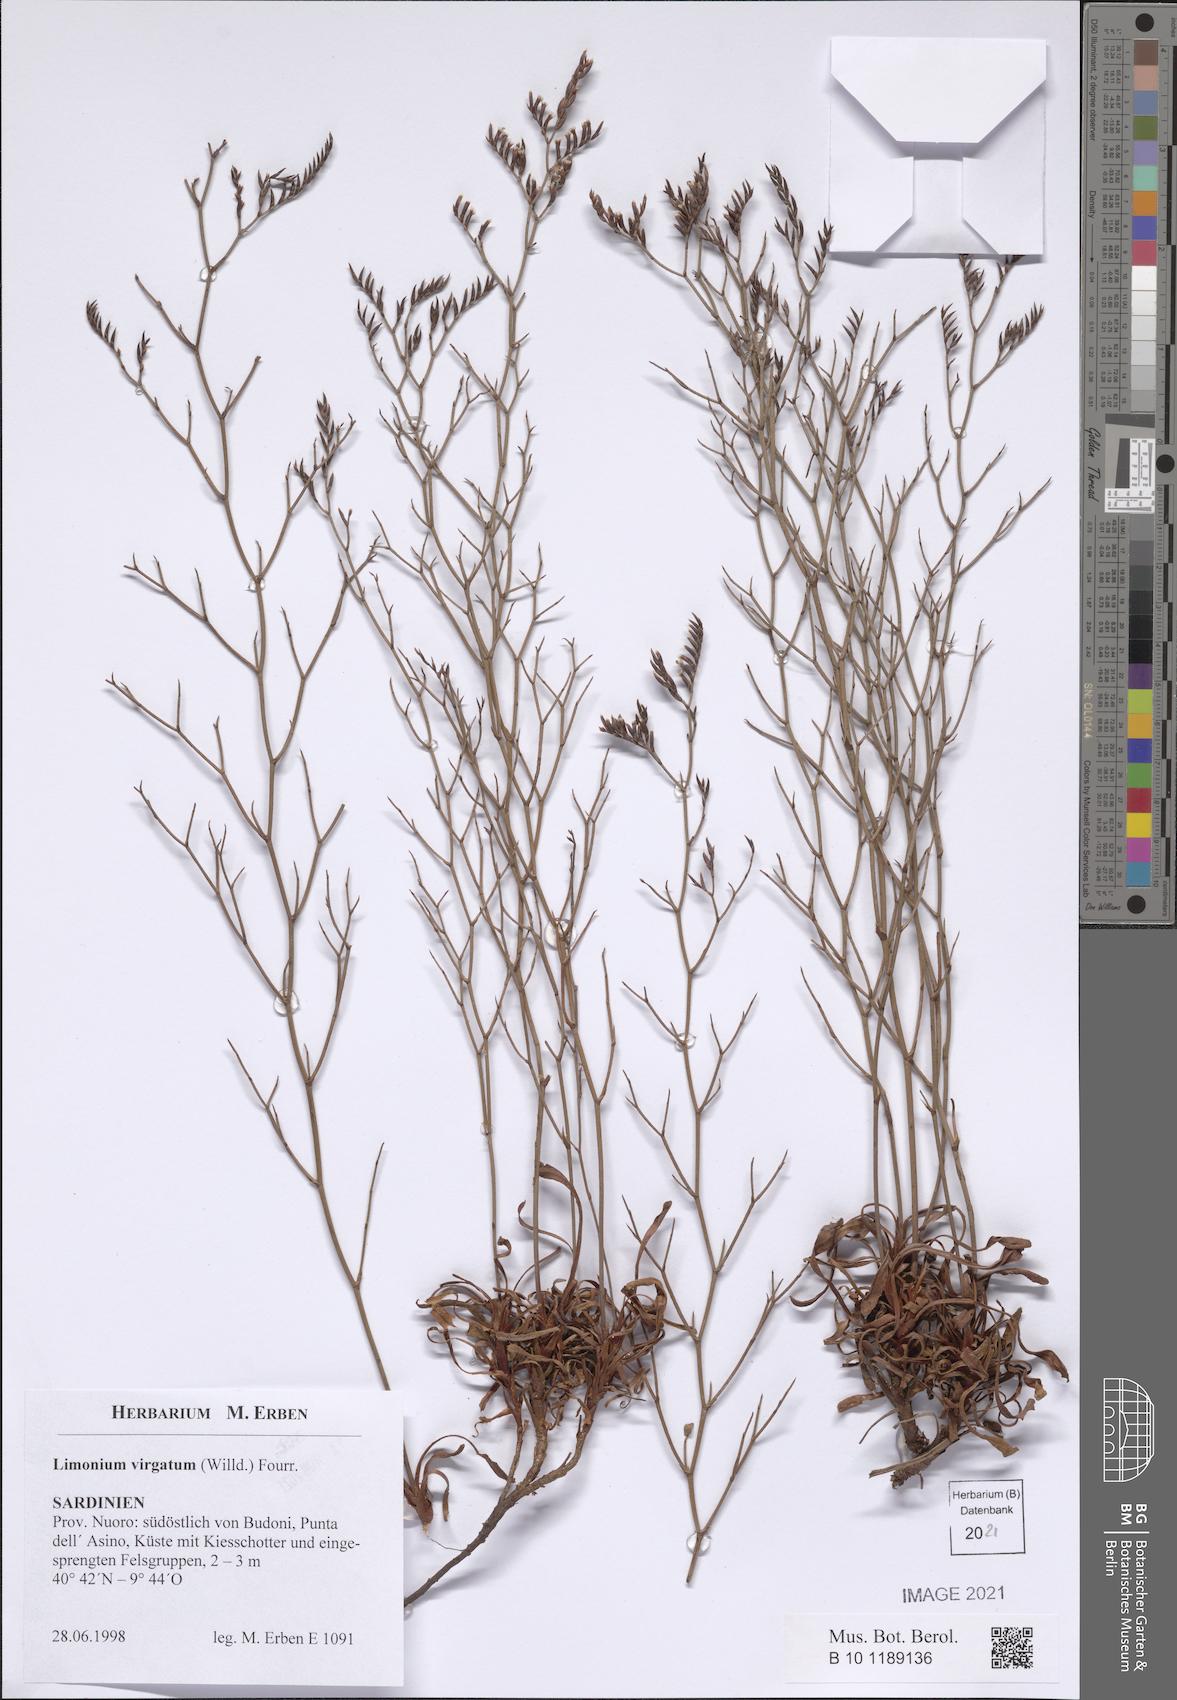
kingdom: Plantae
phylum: Tracheophyta
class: Magnoliopsida
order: Caryophyllales
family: Plumbaginaceae
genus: Limonium
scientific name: Limonium virgatum
